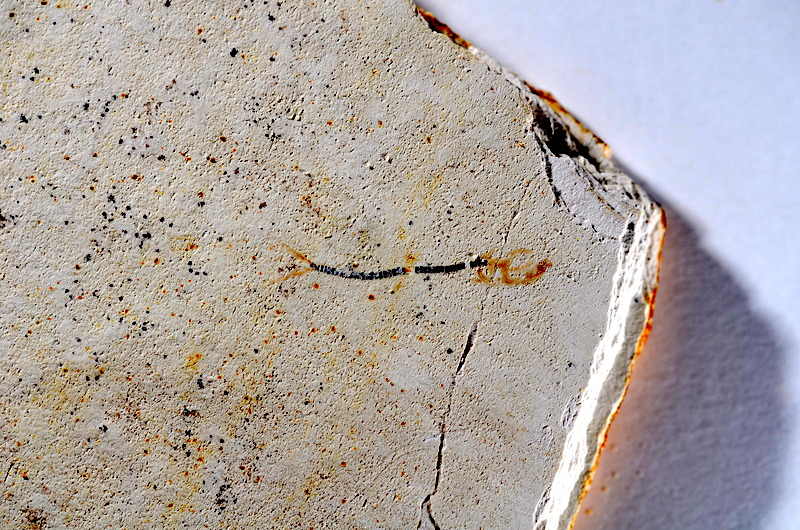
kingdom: Animalia
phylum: Chordata
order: Salmoniformes
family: Orthogonikleithridae
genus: Orthogonikleithrus
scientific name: Orthogonikleithrus hoelli
